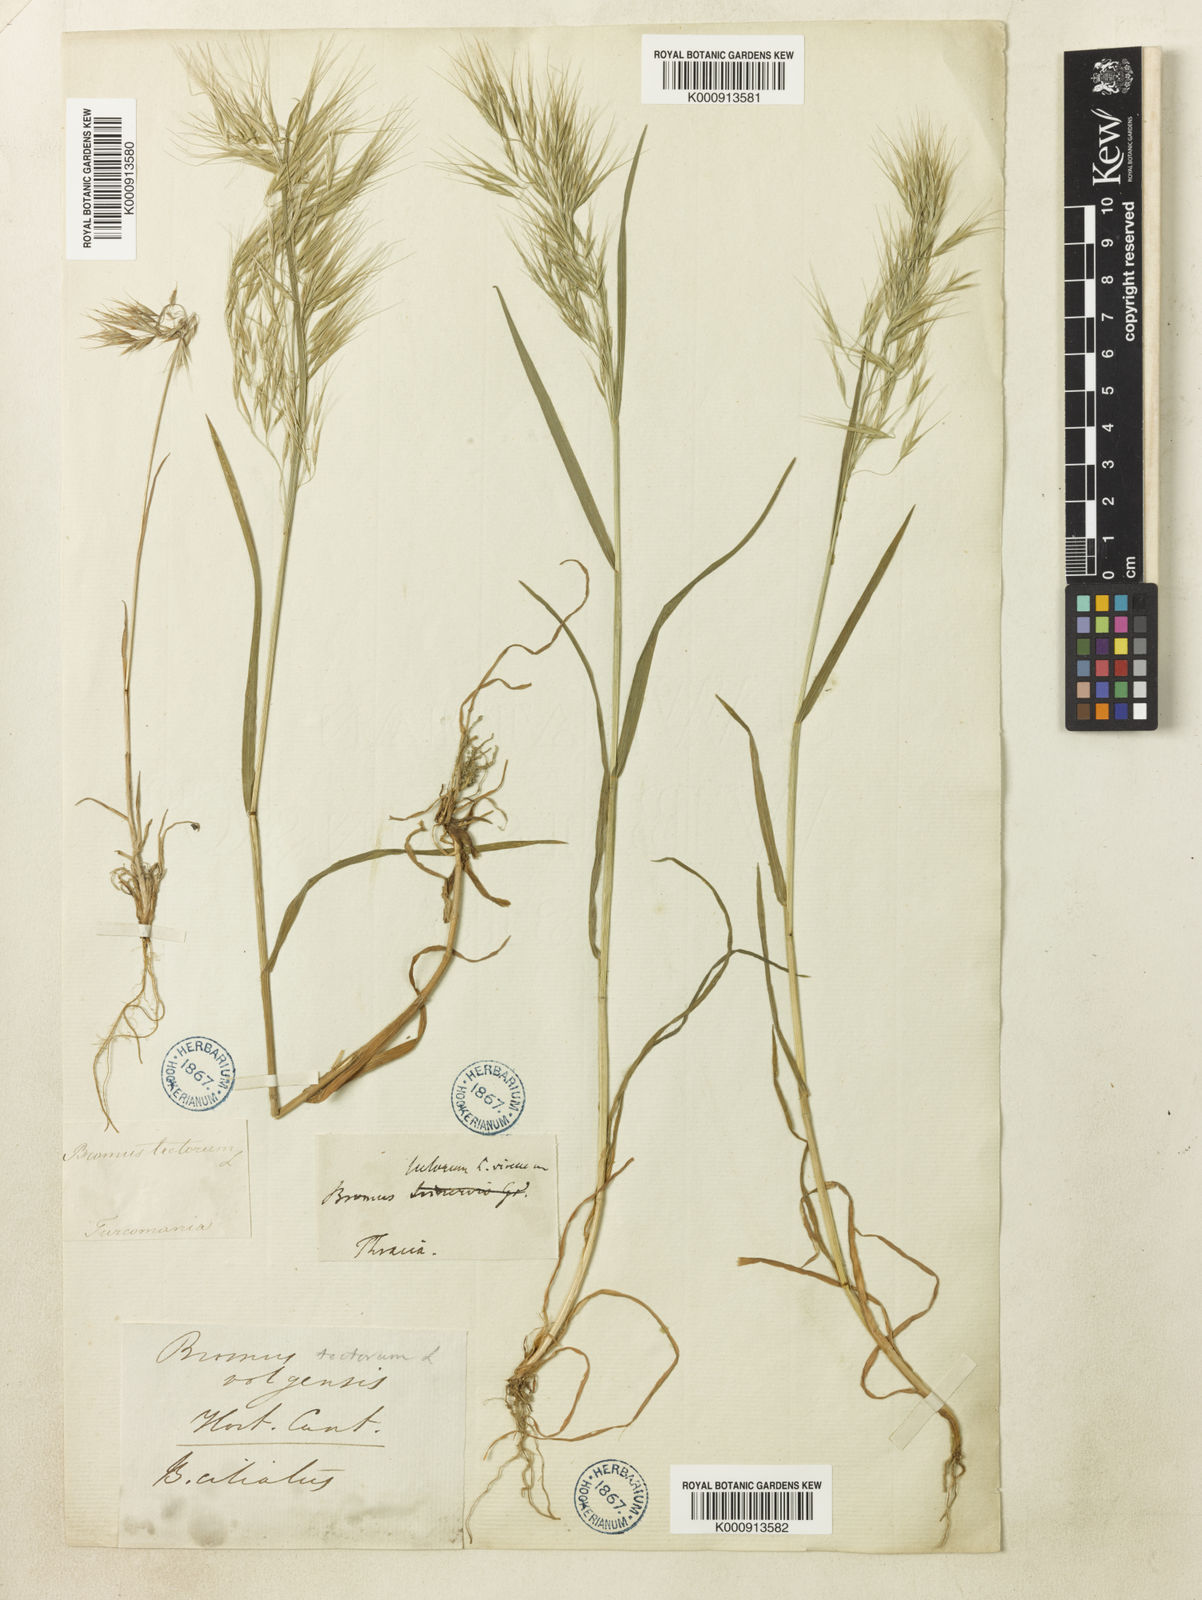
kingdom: Plantae
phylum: Tracheophyta
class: Liliopsida
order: Poales
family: Poaceae
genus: Bromus
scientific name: Bromus tectorum
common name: Cheatgrass
